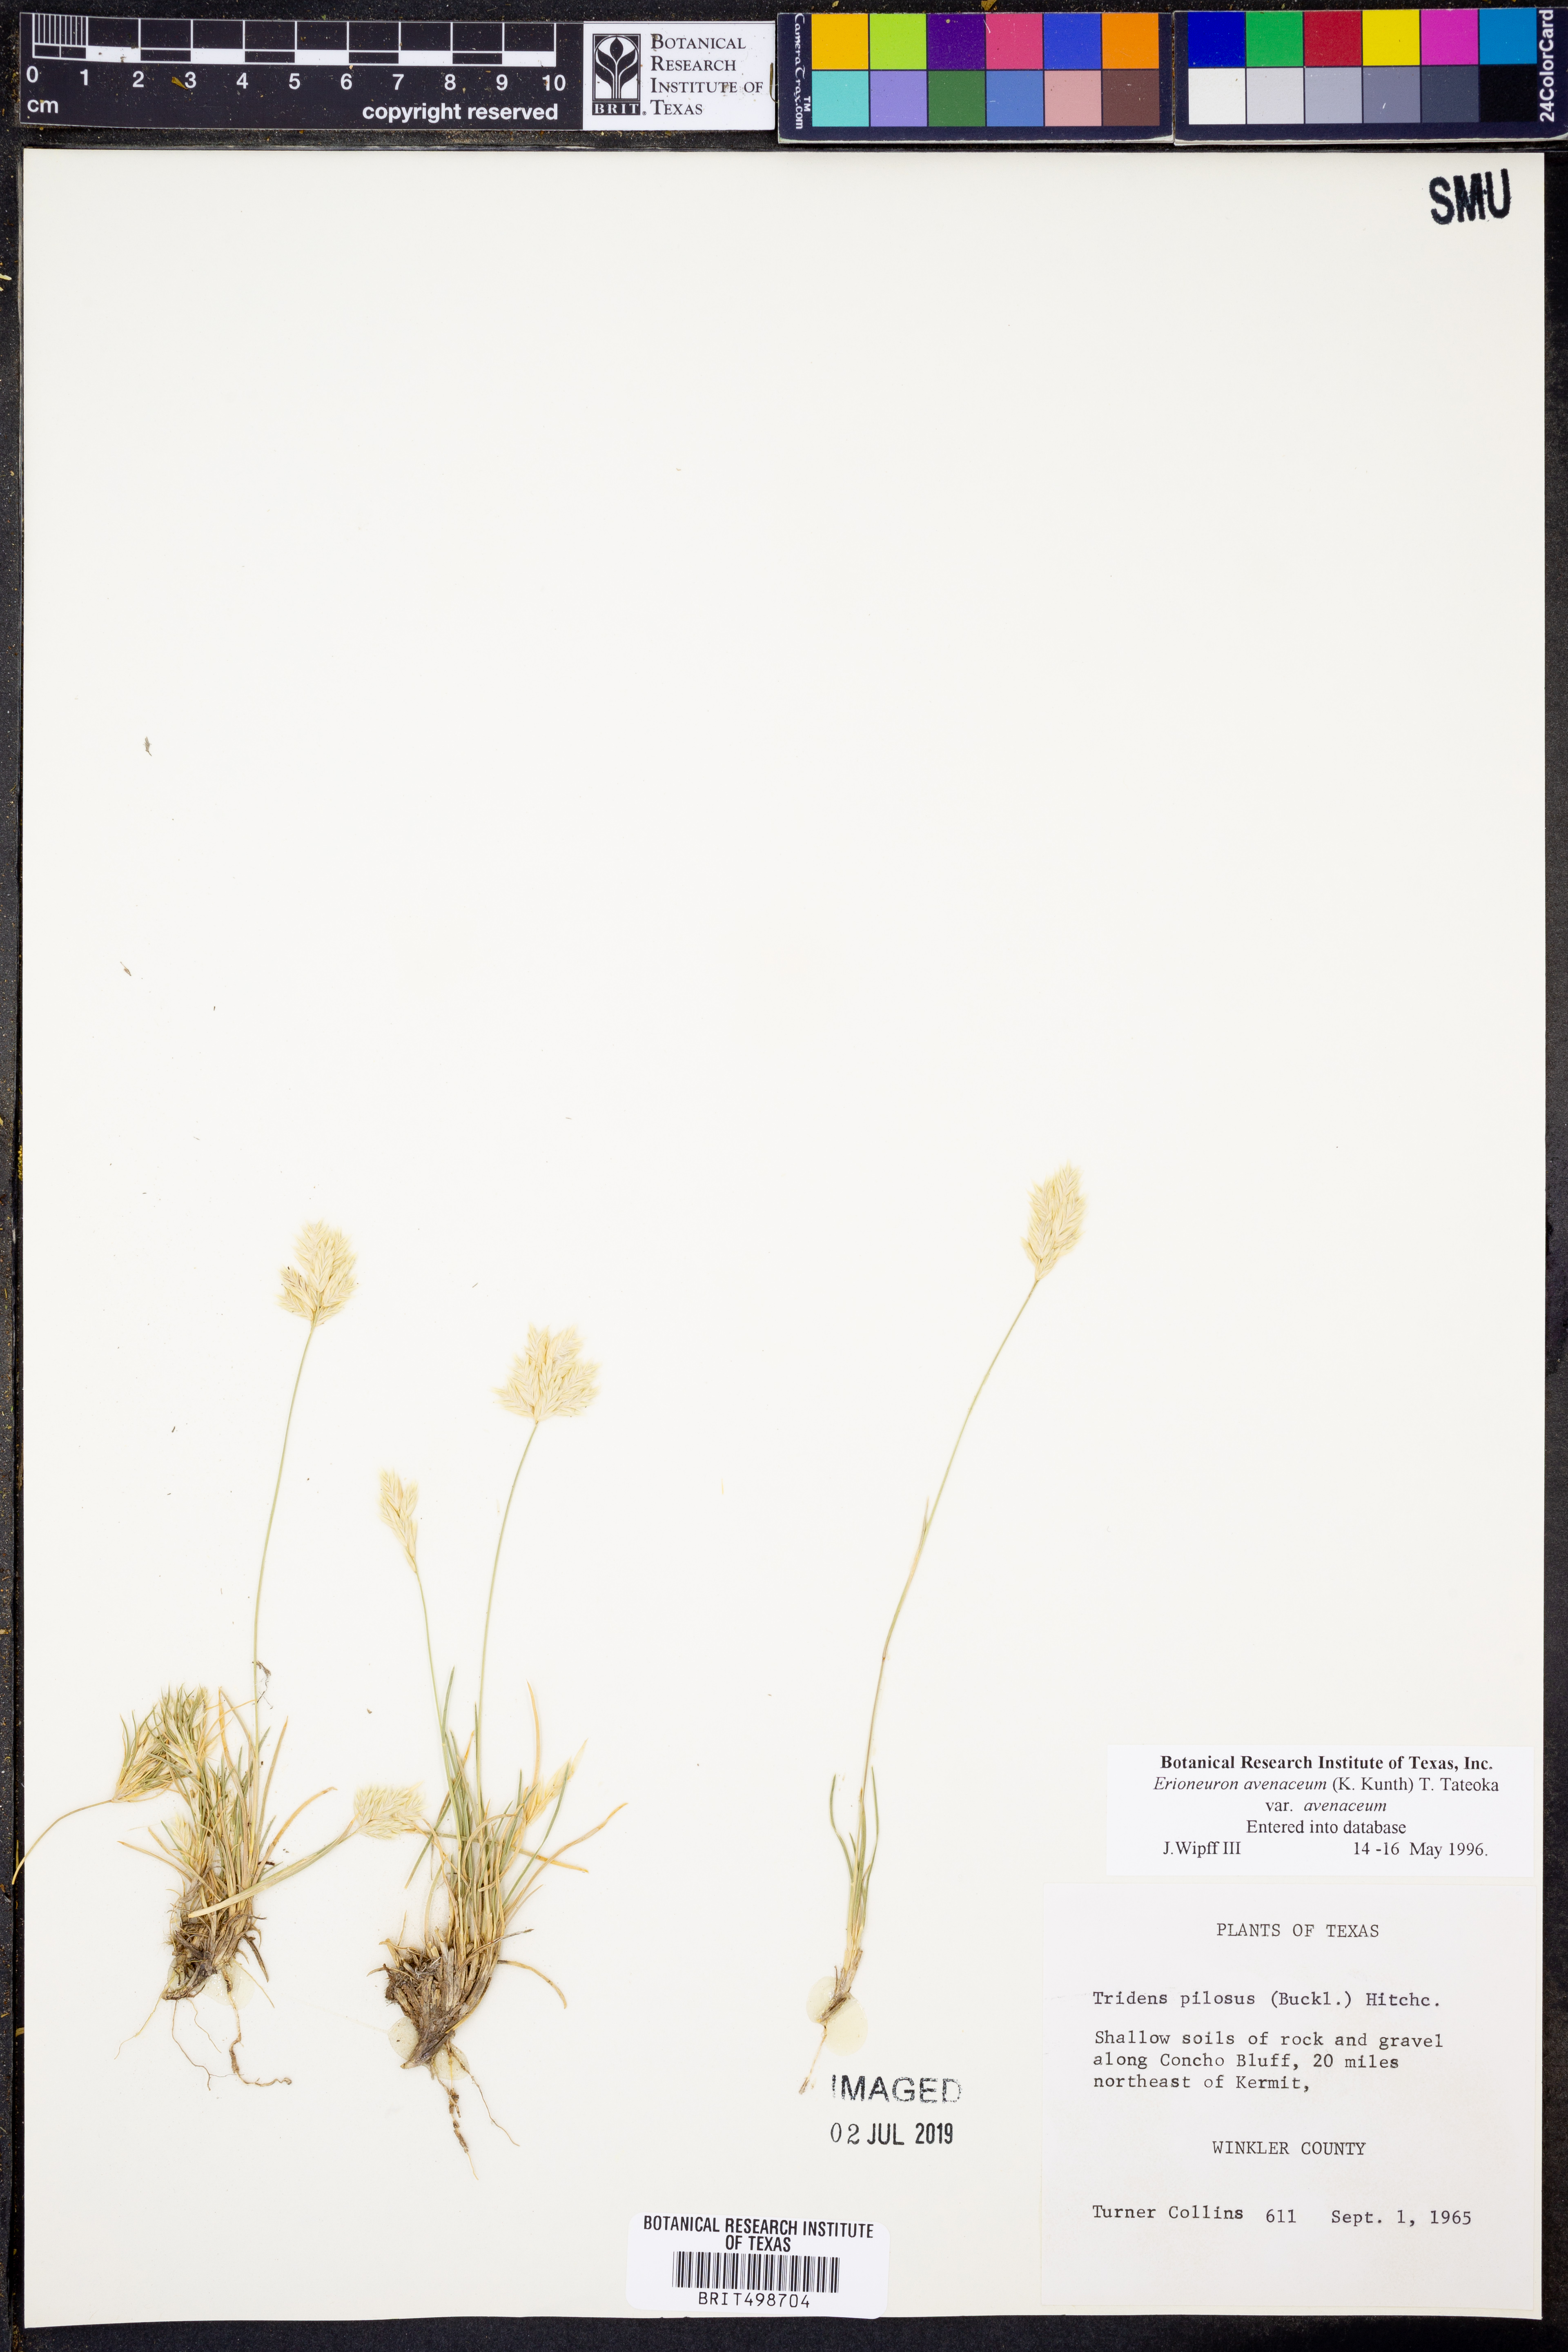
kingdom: Plantae
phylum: Tracheophyta
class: Liliopsida
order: Poales
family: Poaceae
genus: Erioneuron
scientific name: Erioneuron avenaceum
